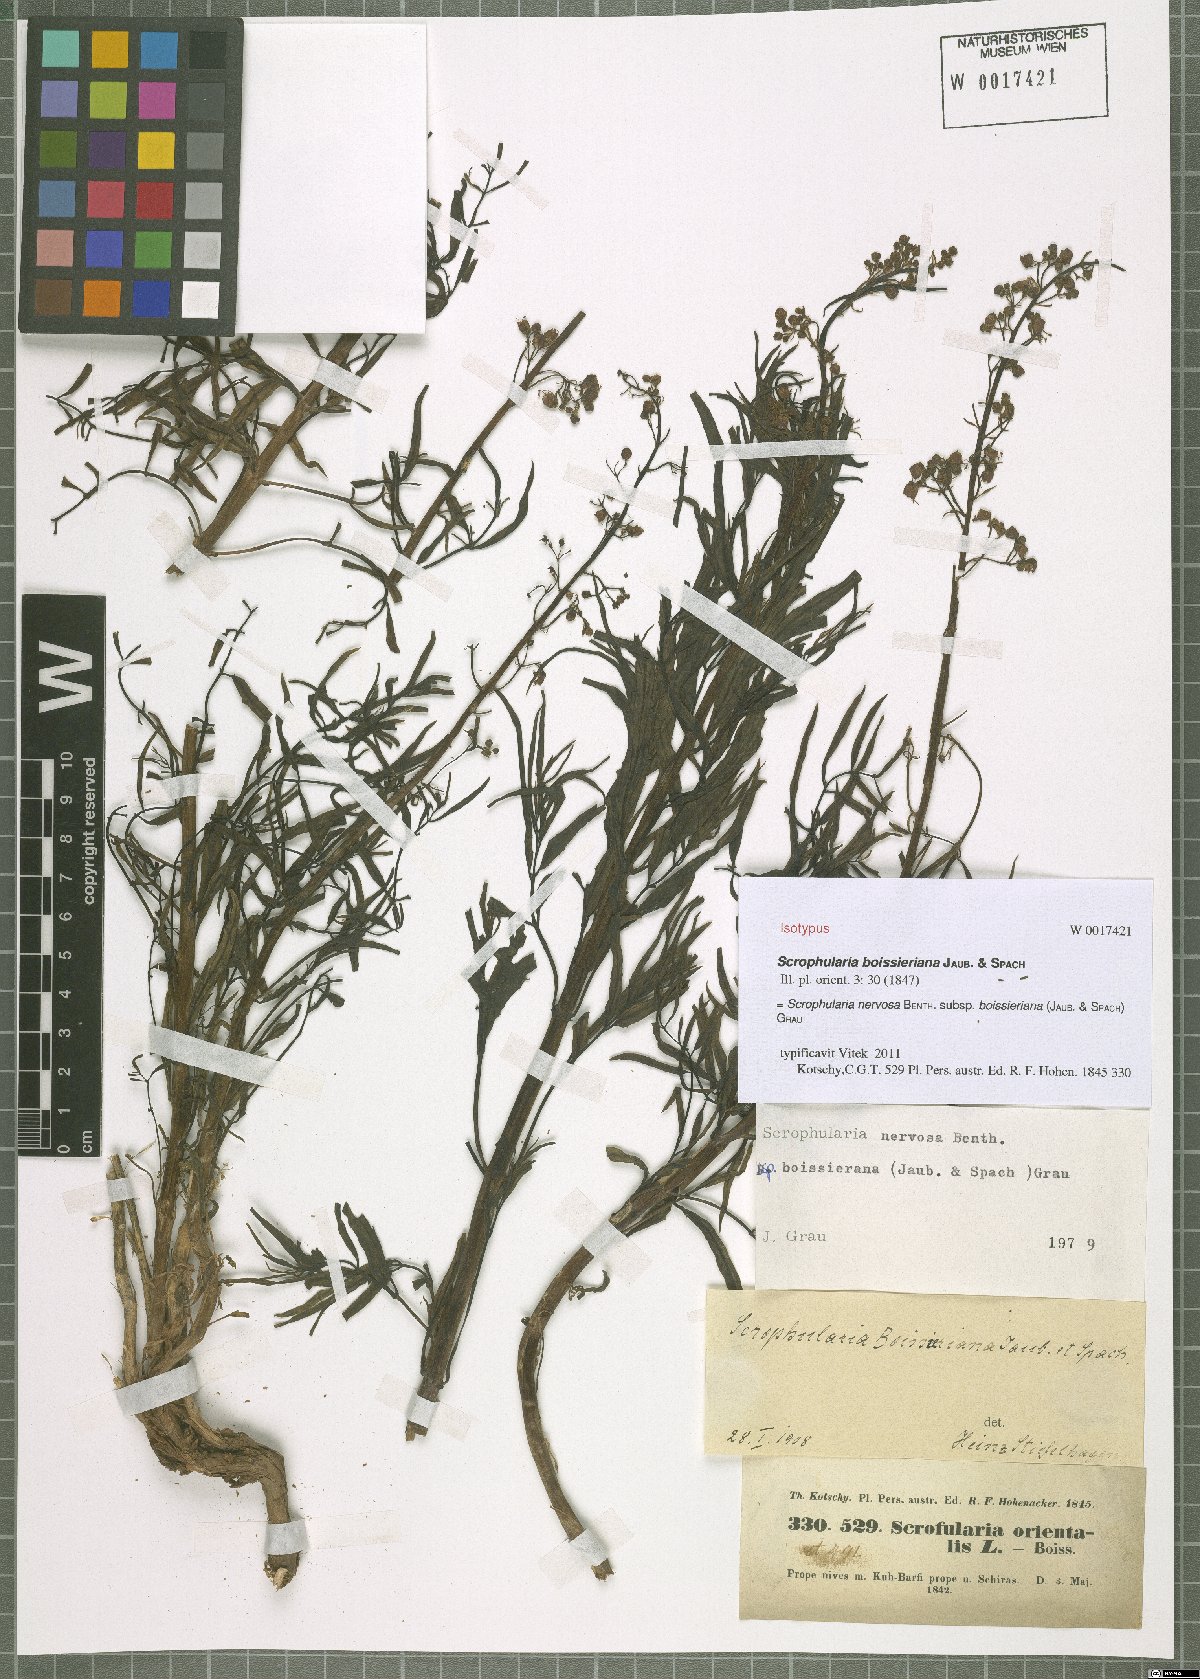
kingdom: Plantae
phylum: Tracheophyta
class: Magnoliopsida
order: Lamiales
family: Scrophulariaceae
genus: Scrophularia
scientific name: Scrophularia nervosa
